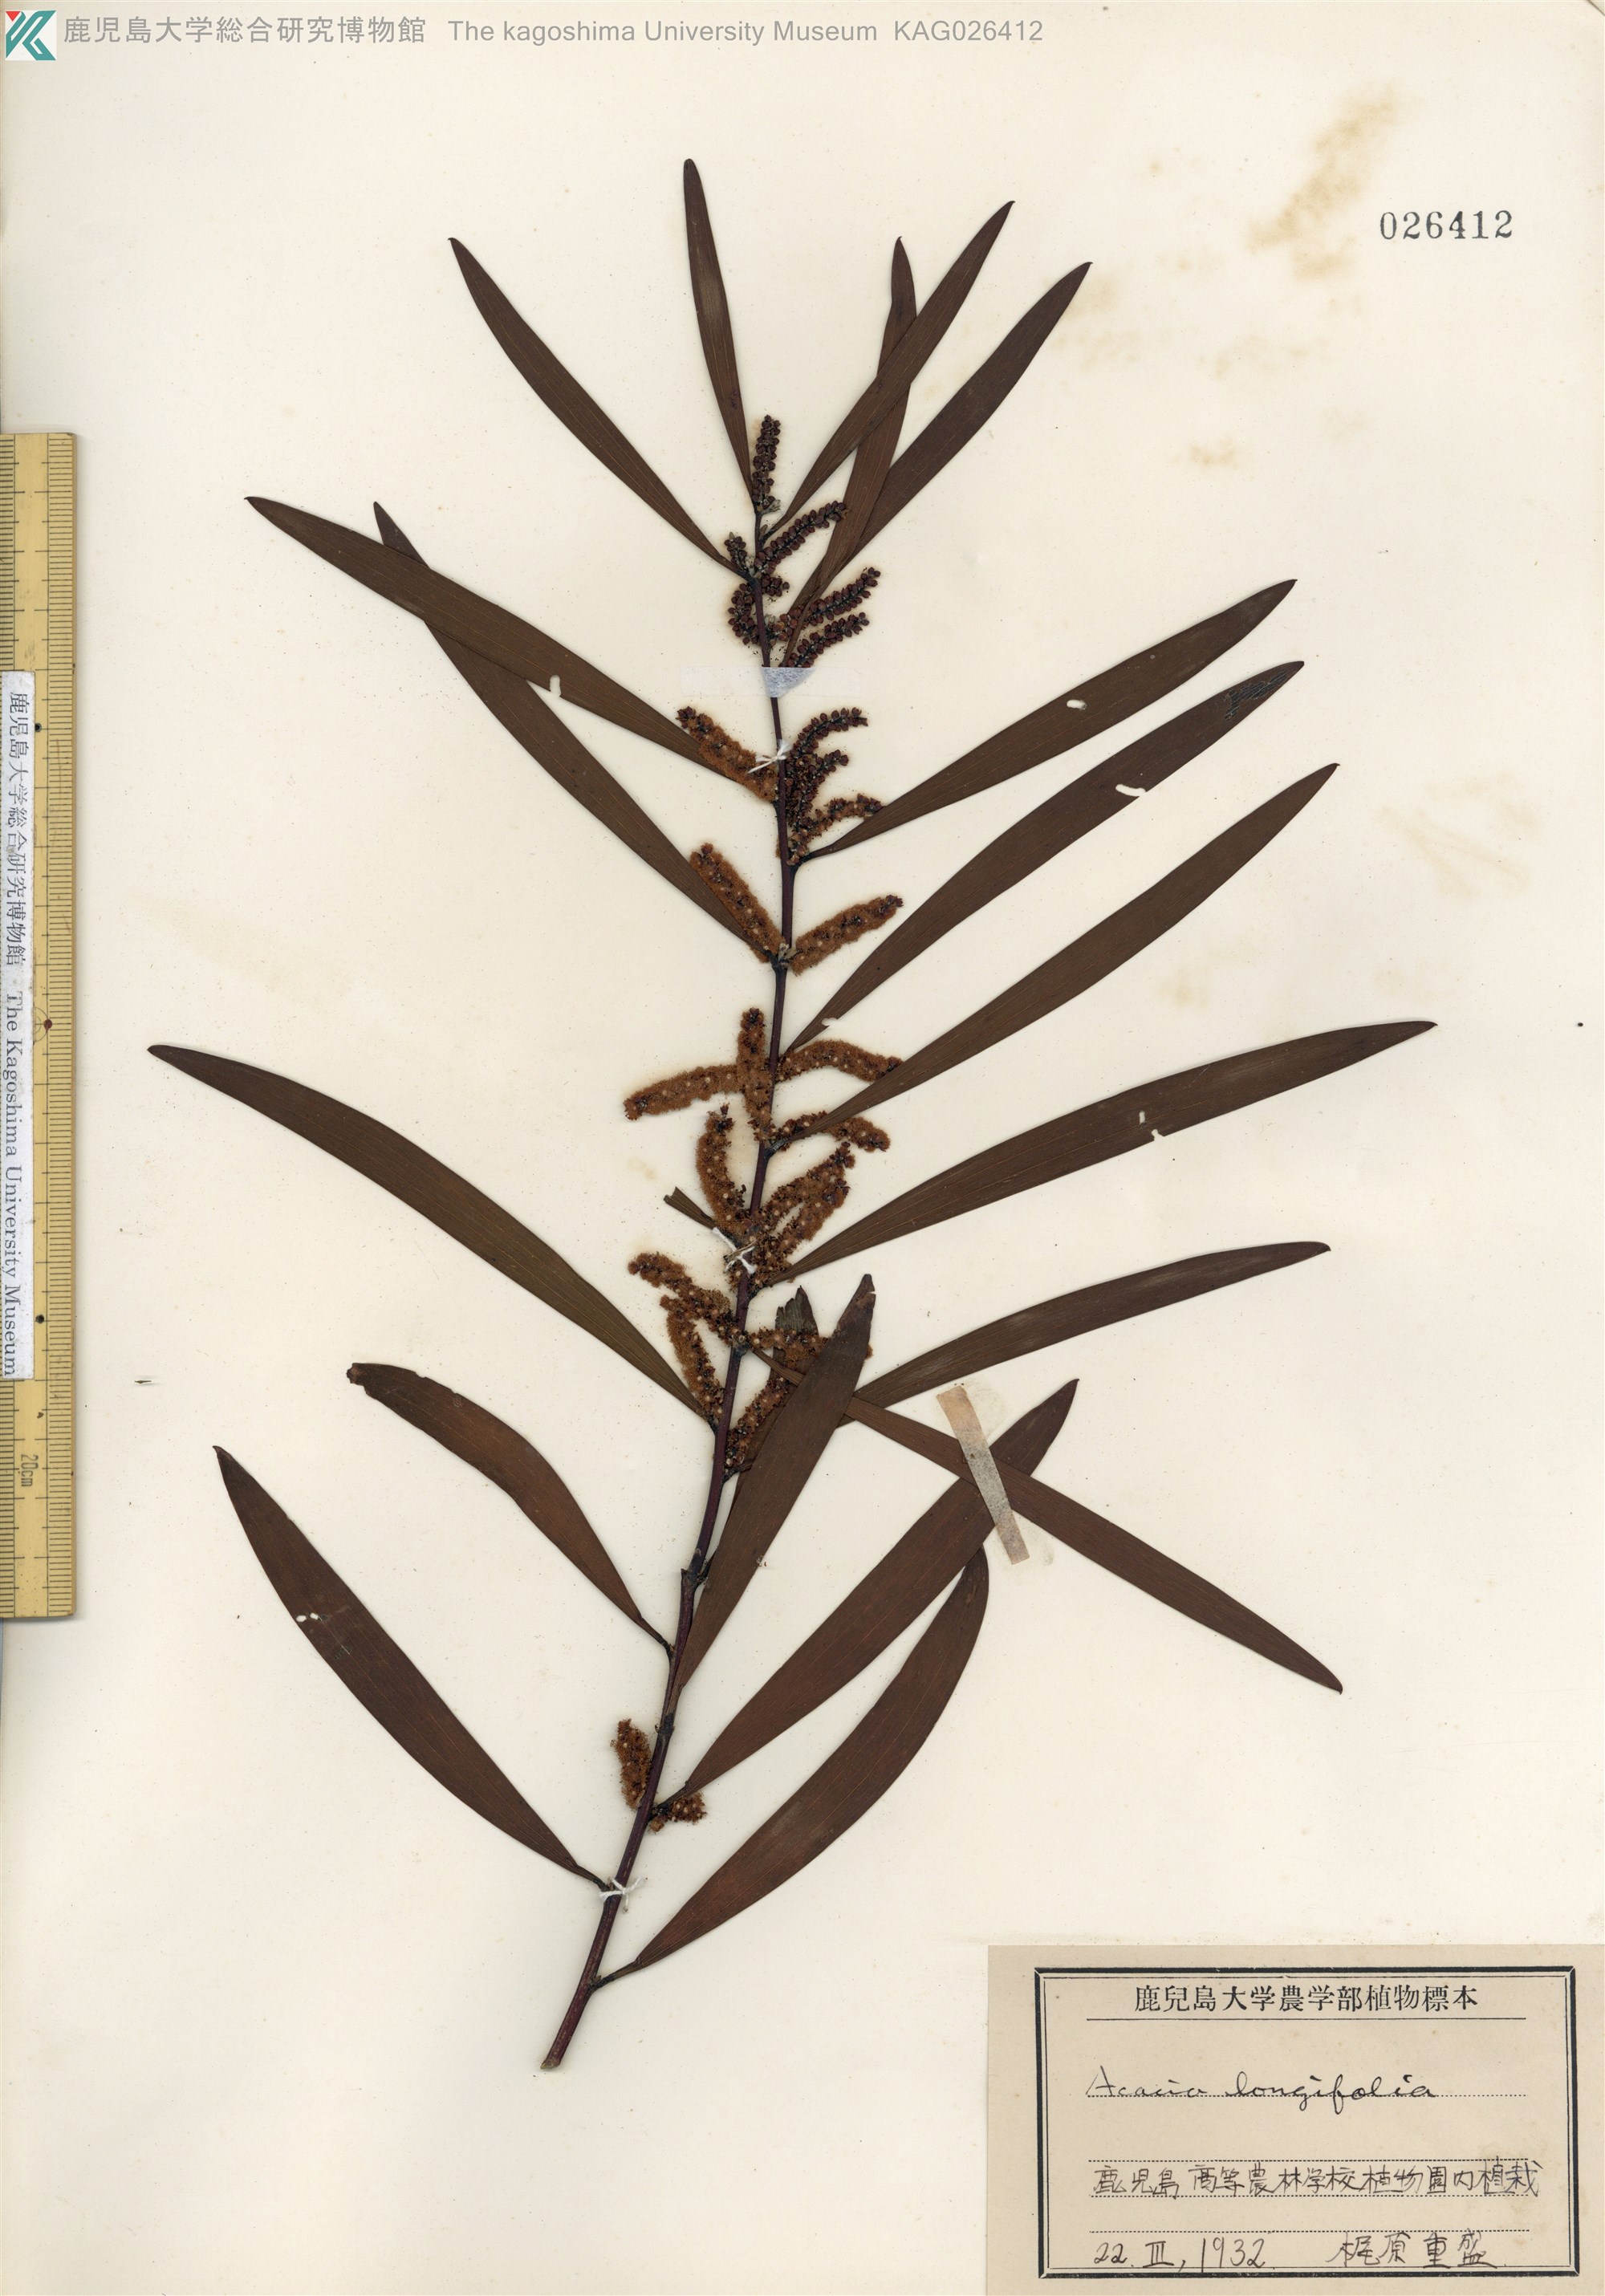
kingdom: Plantae
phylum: Tracheophyta
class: Magnoliopsida
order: Fabales
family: Fabaceae
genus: Acacia
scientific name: Acacia longifolia
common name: Sydney golden wattle
